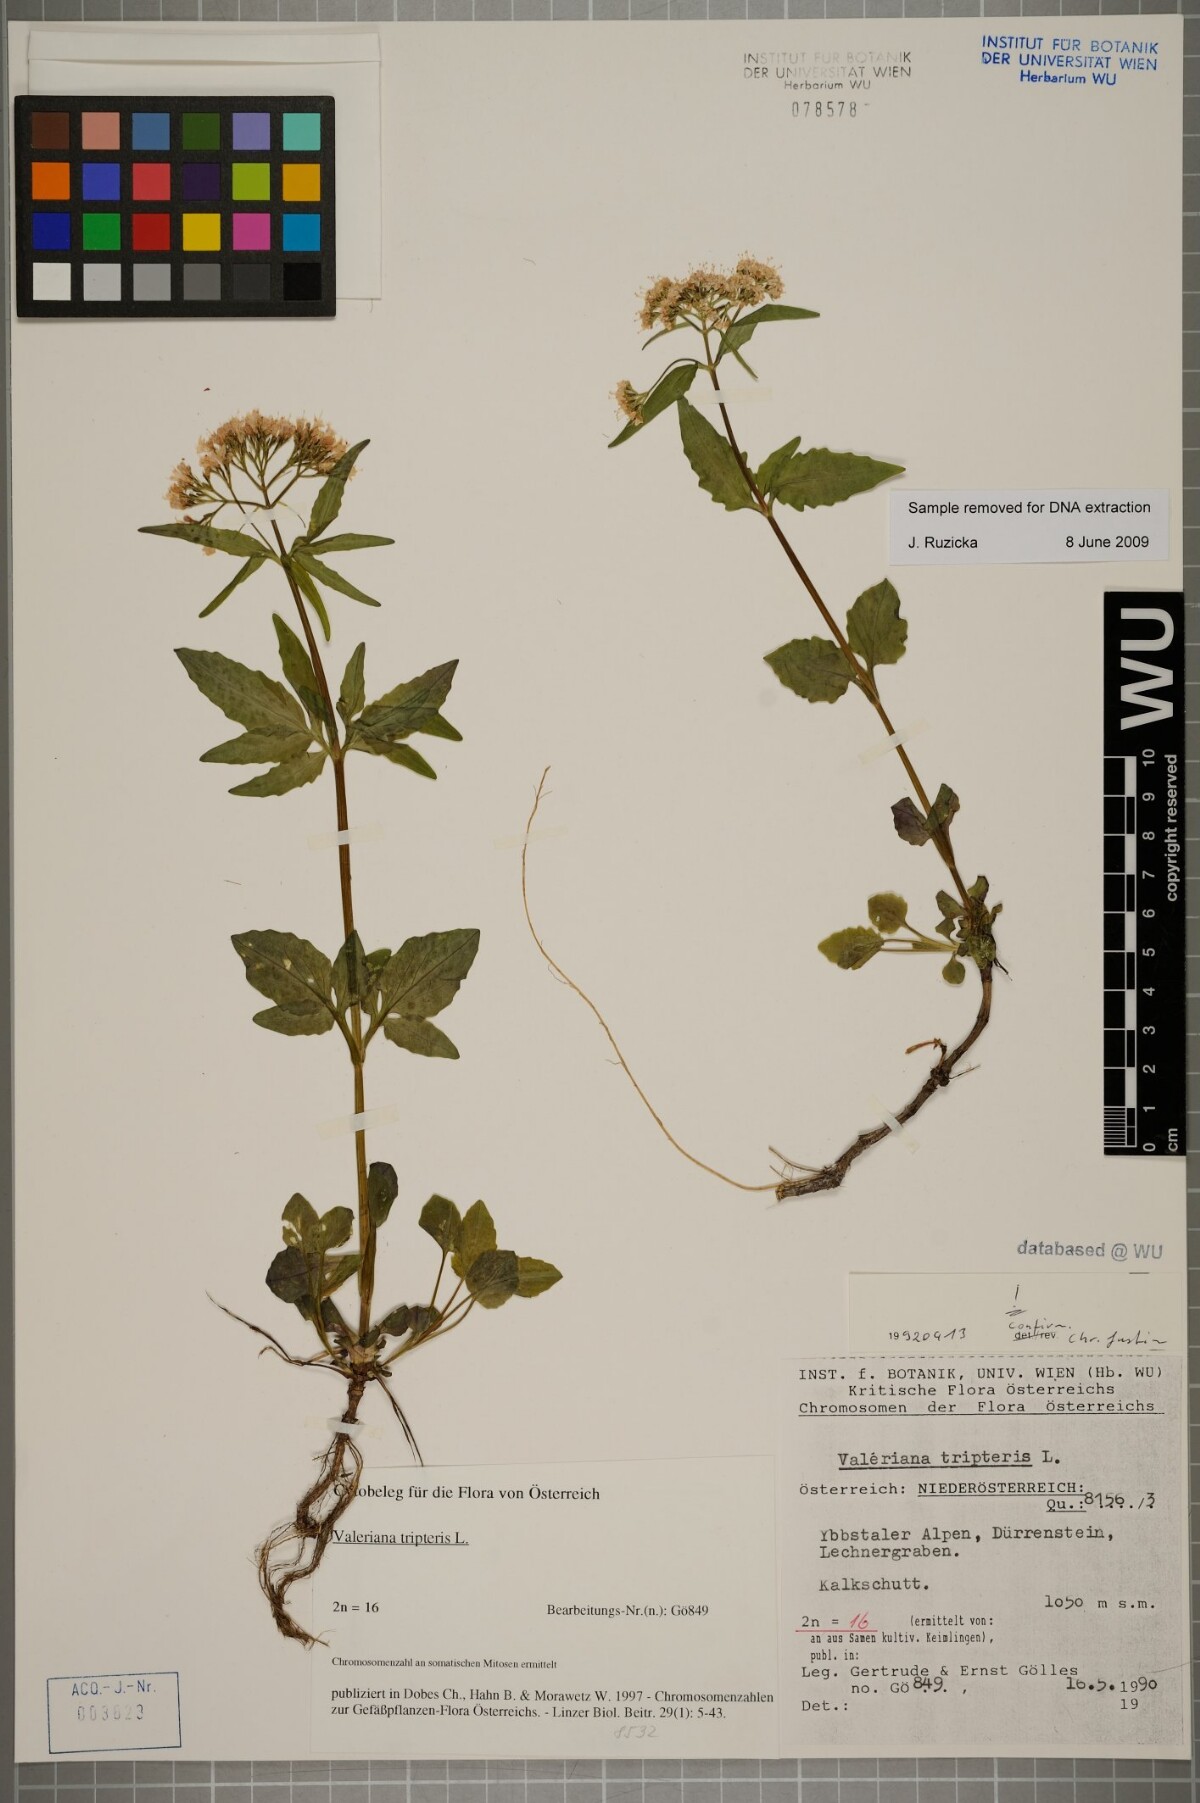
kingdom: Plantae
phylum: Tracheophyta
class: Magnoliopsida
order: Dipsacales
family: Caprifoliaceae
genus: Valeriana
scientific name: Valeriana tripteris
